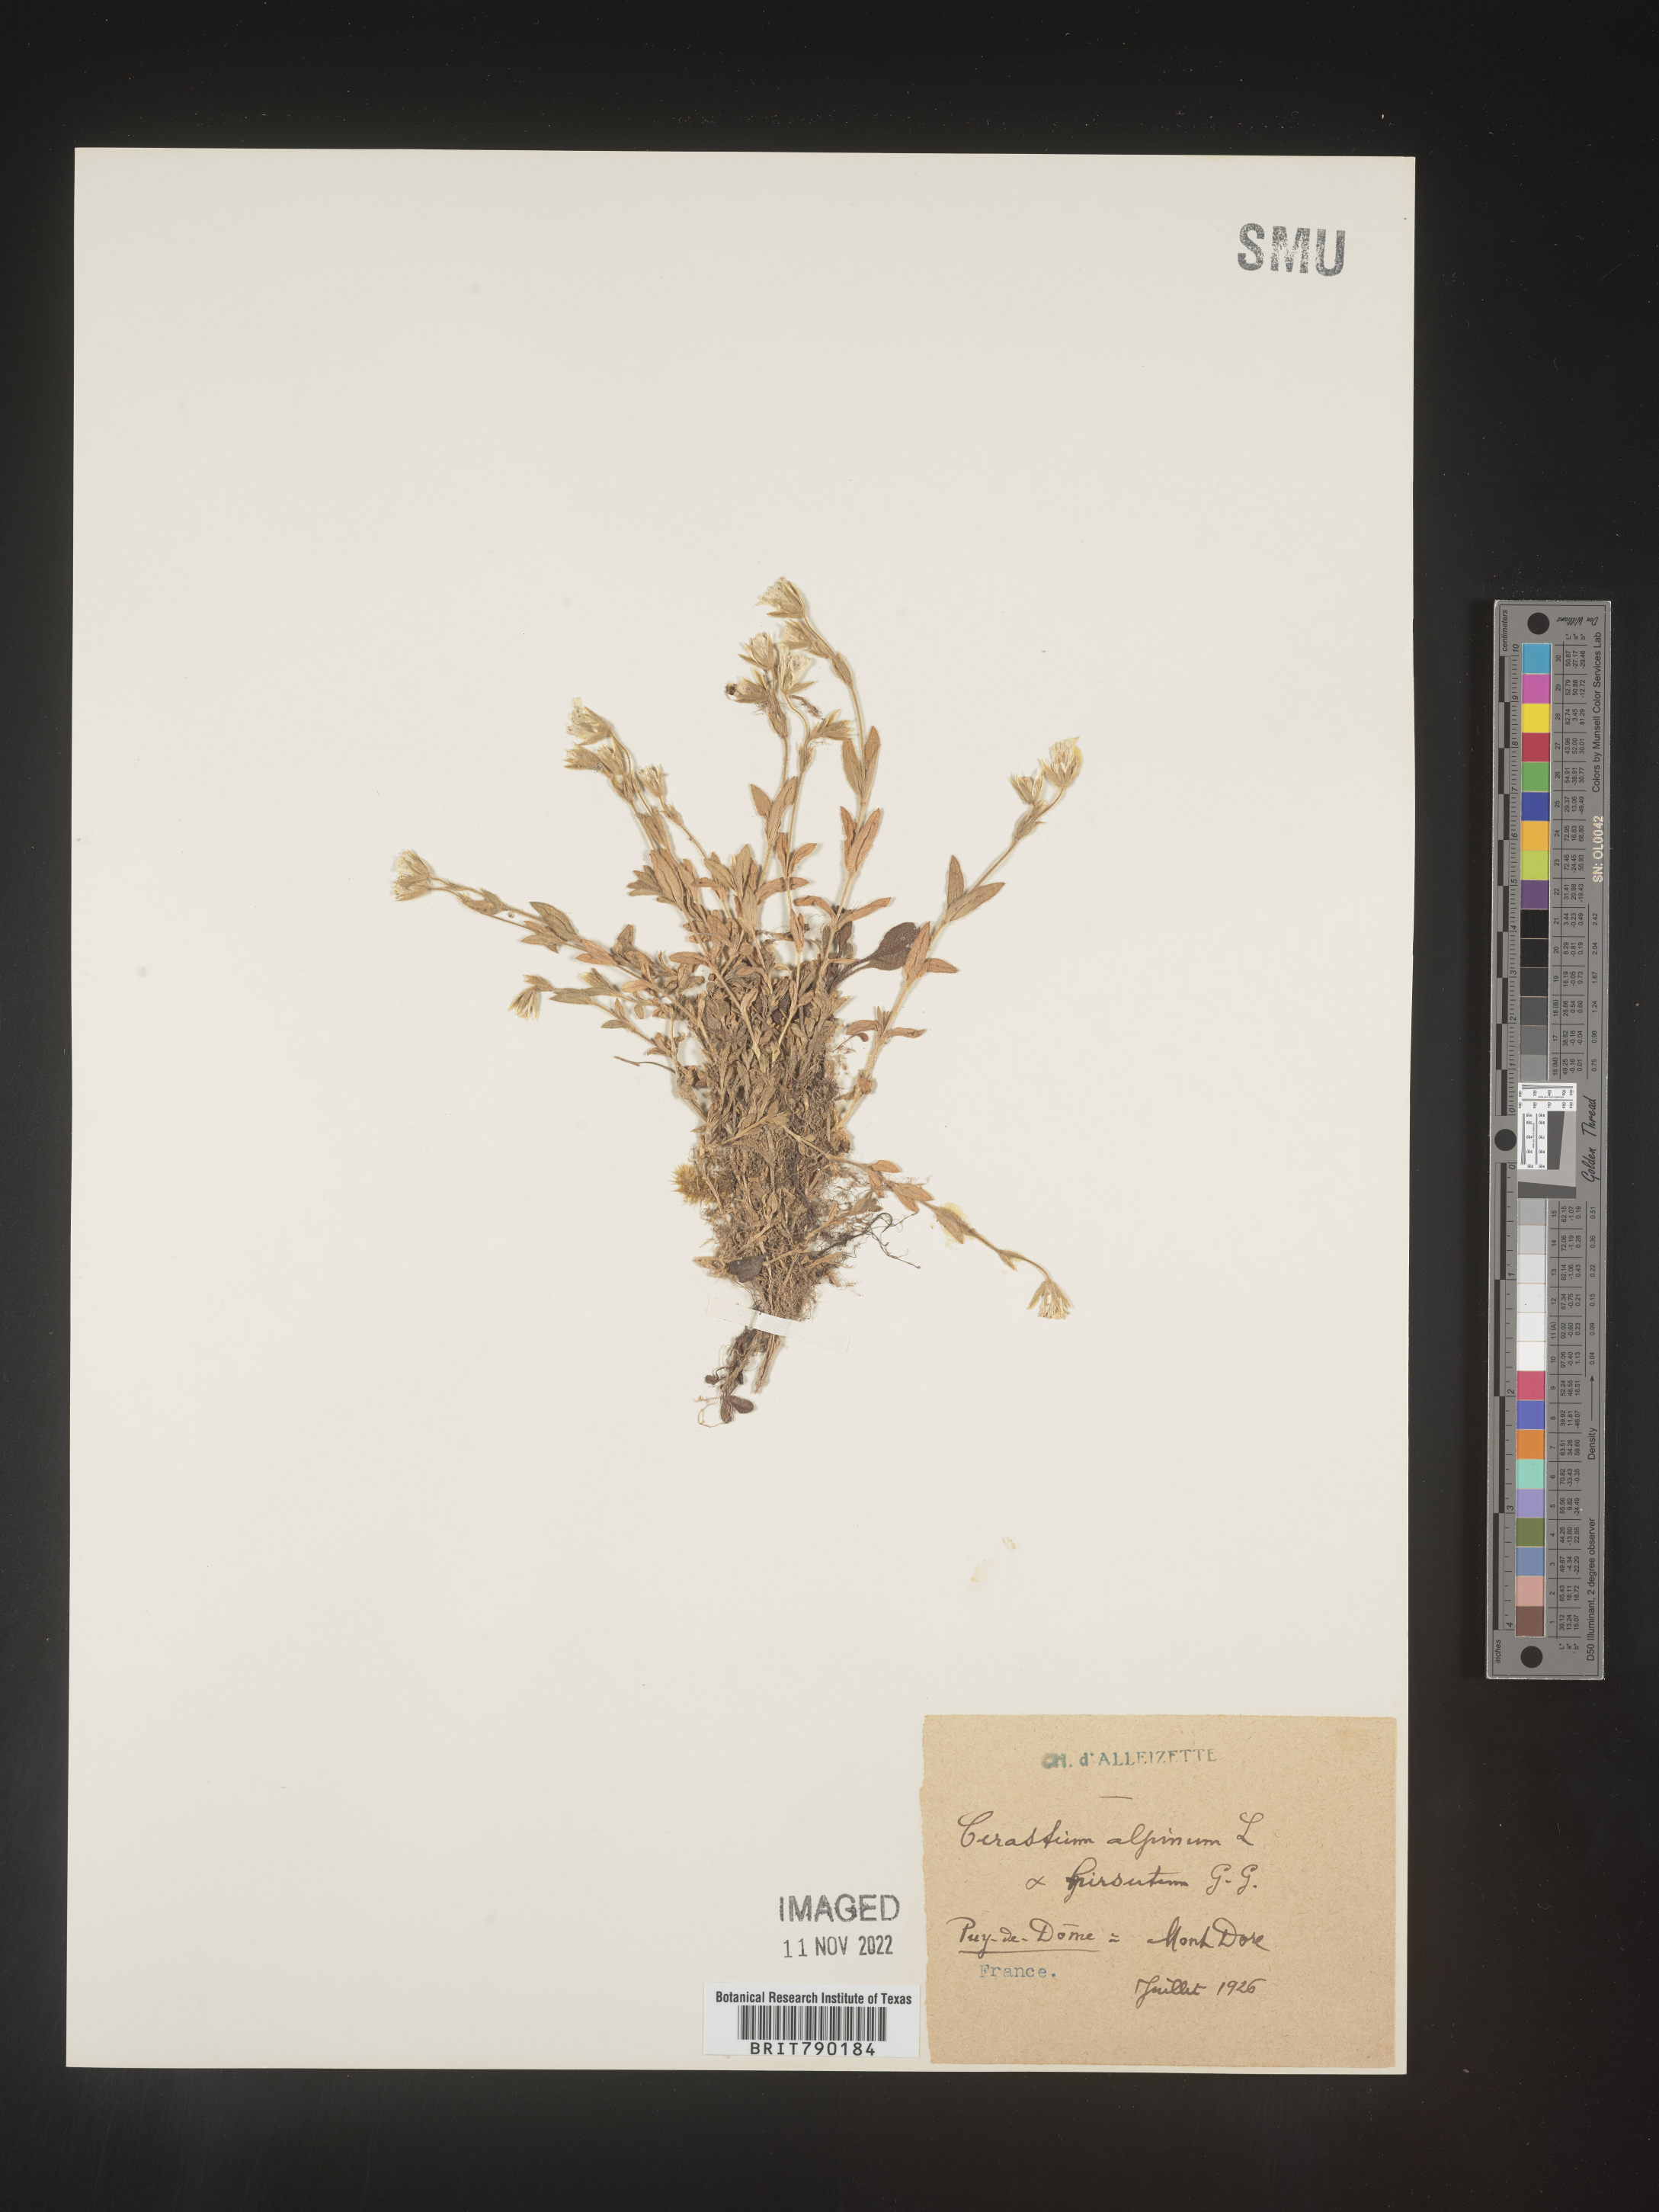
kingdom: Plantae
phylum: Tracheophyta
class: Magnoliopsida
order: Caryophyllales
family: Caryophyllaceae
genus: Cerastium
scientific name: Cerastium
